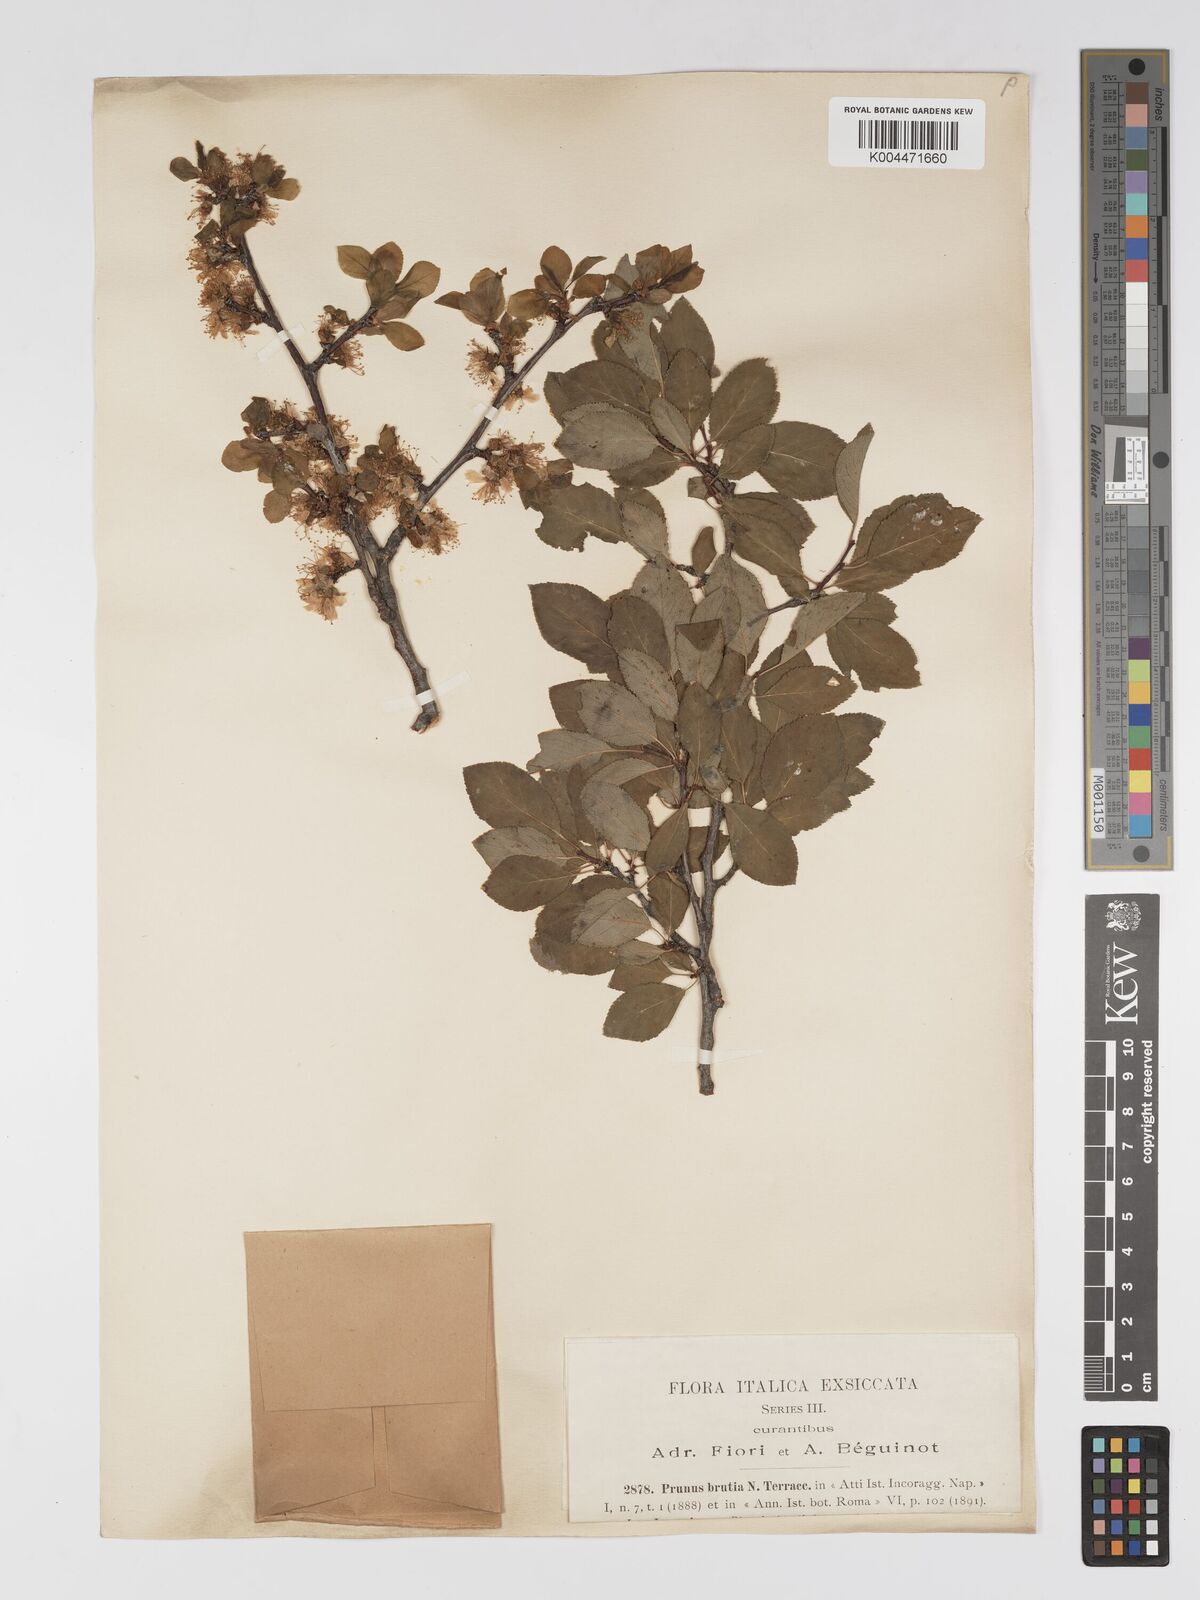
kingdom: Plantae
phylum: Tracheophyta
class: Magnoliopsida
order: Rosales
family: Rosaceae
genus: Prunus
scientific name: Prunus cocomilia
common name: Italian plum
